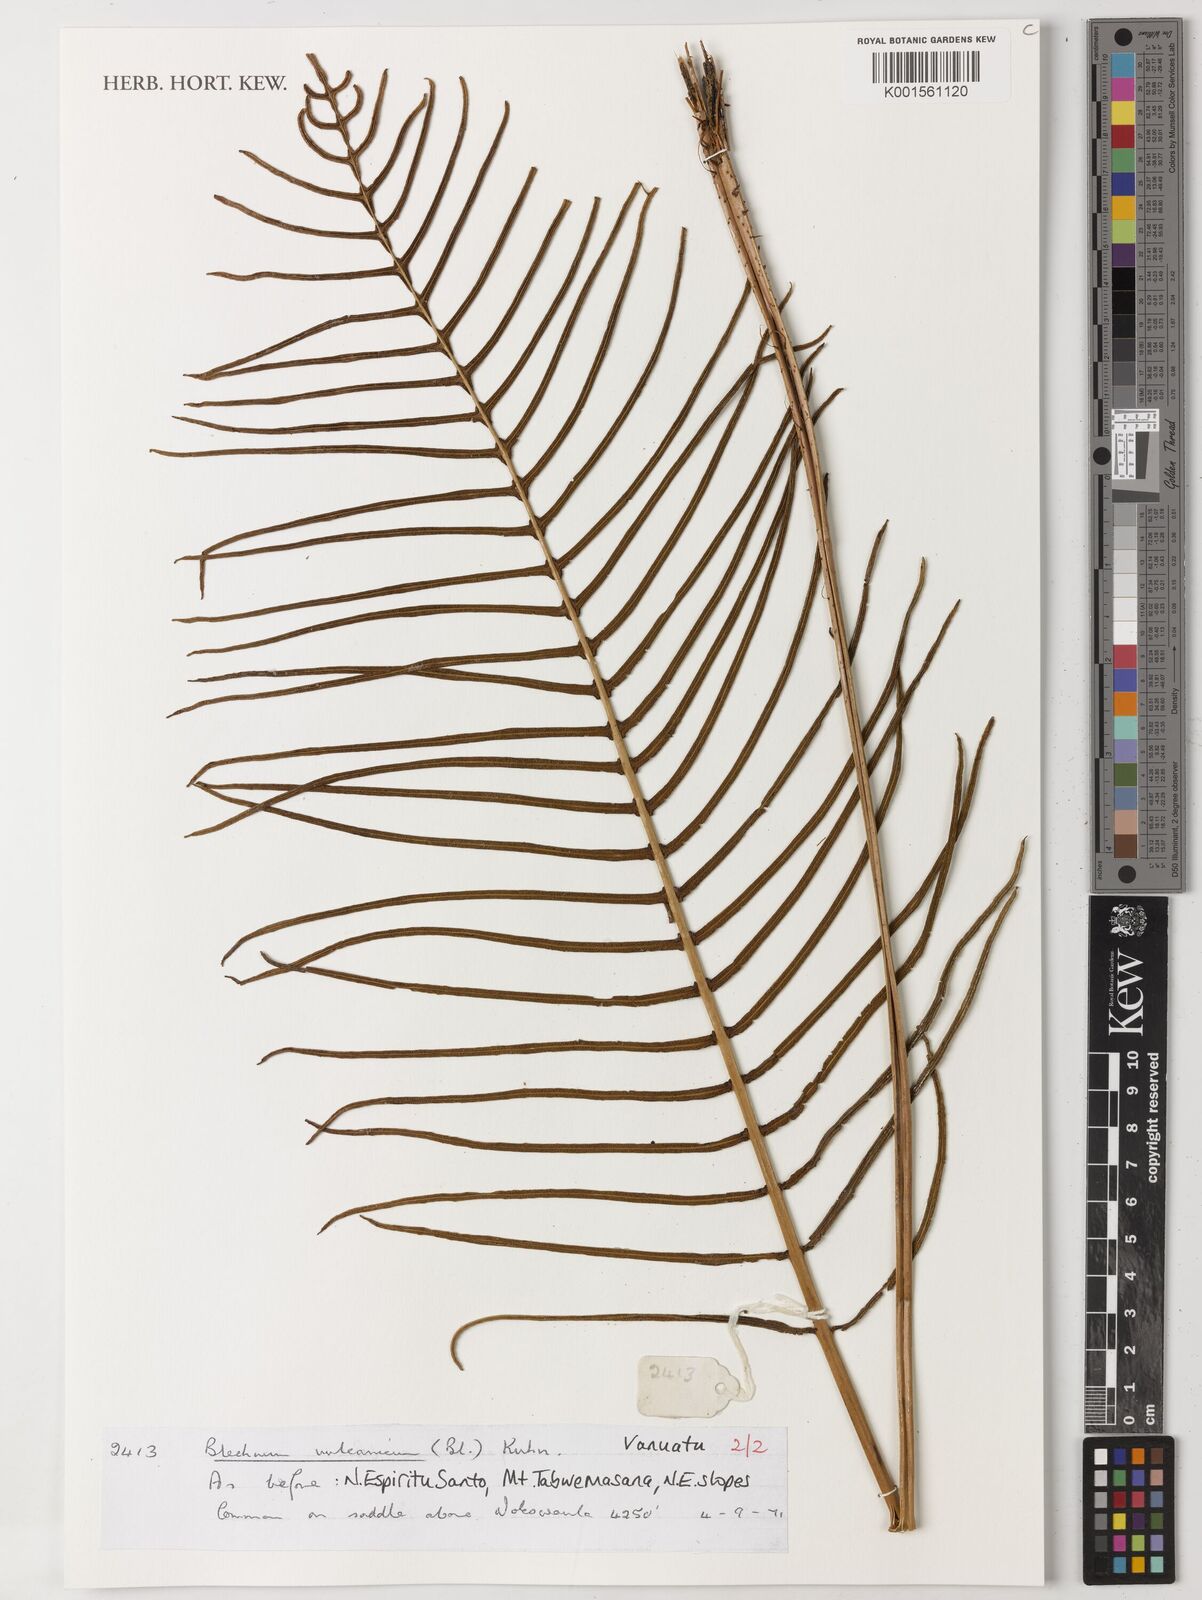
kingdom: Plantae
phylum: Tracheophyta
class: Polypodiopsida
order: Polypodiales
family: Blechnaceae
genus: Cranfillia
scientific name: Cranfillia vulcanica
